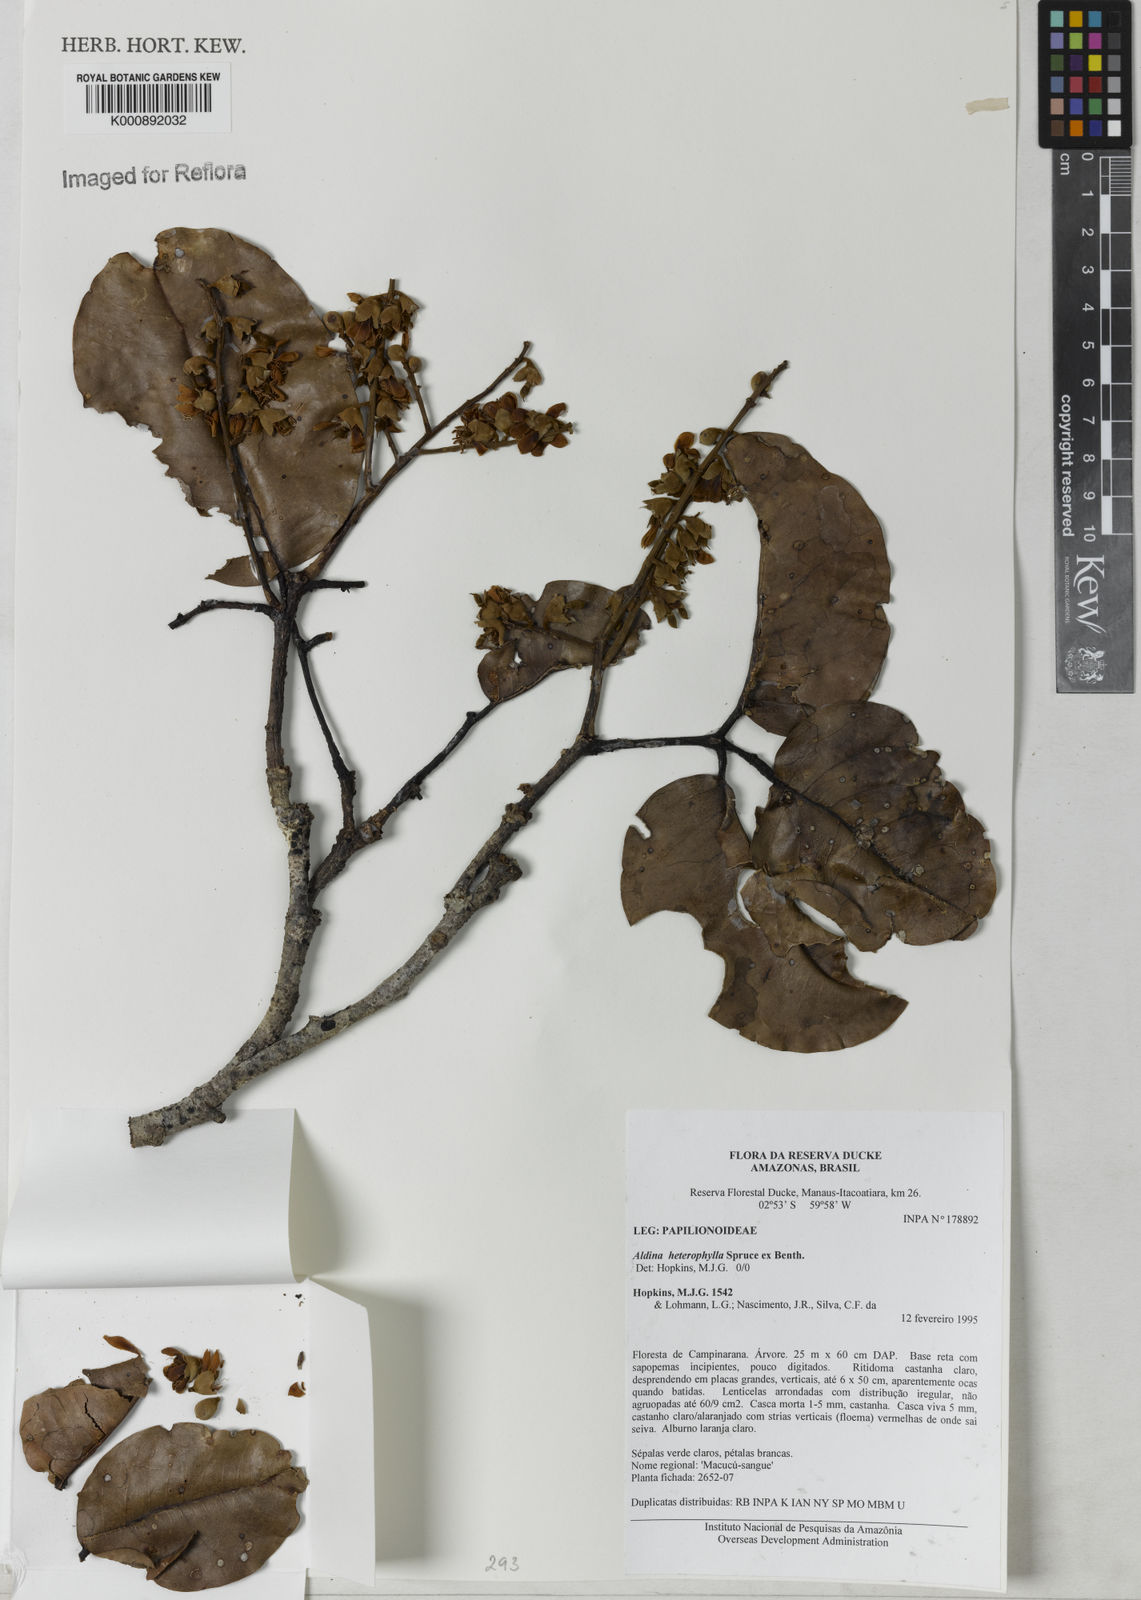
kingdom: Plantae
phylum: Tracheophyta
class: Magnoliopsida
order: Fabales
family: Fabaceae
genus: Aldina
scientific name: Aldina heterophylla
